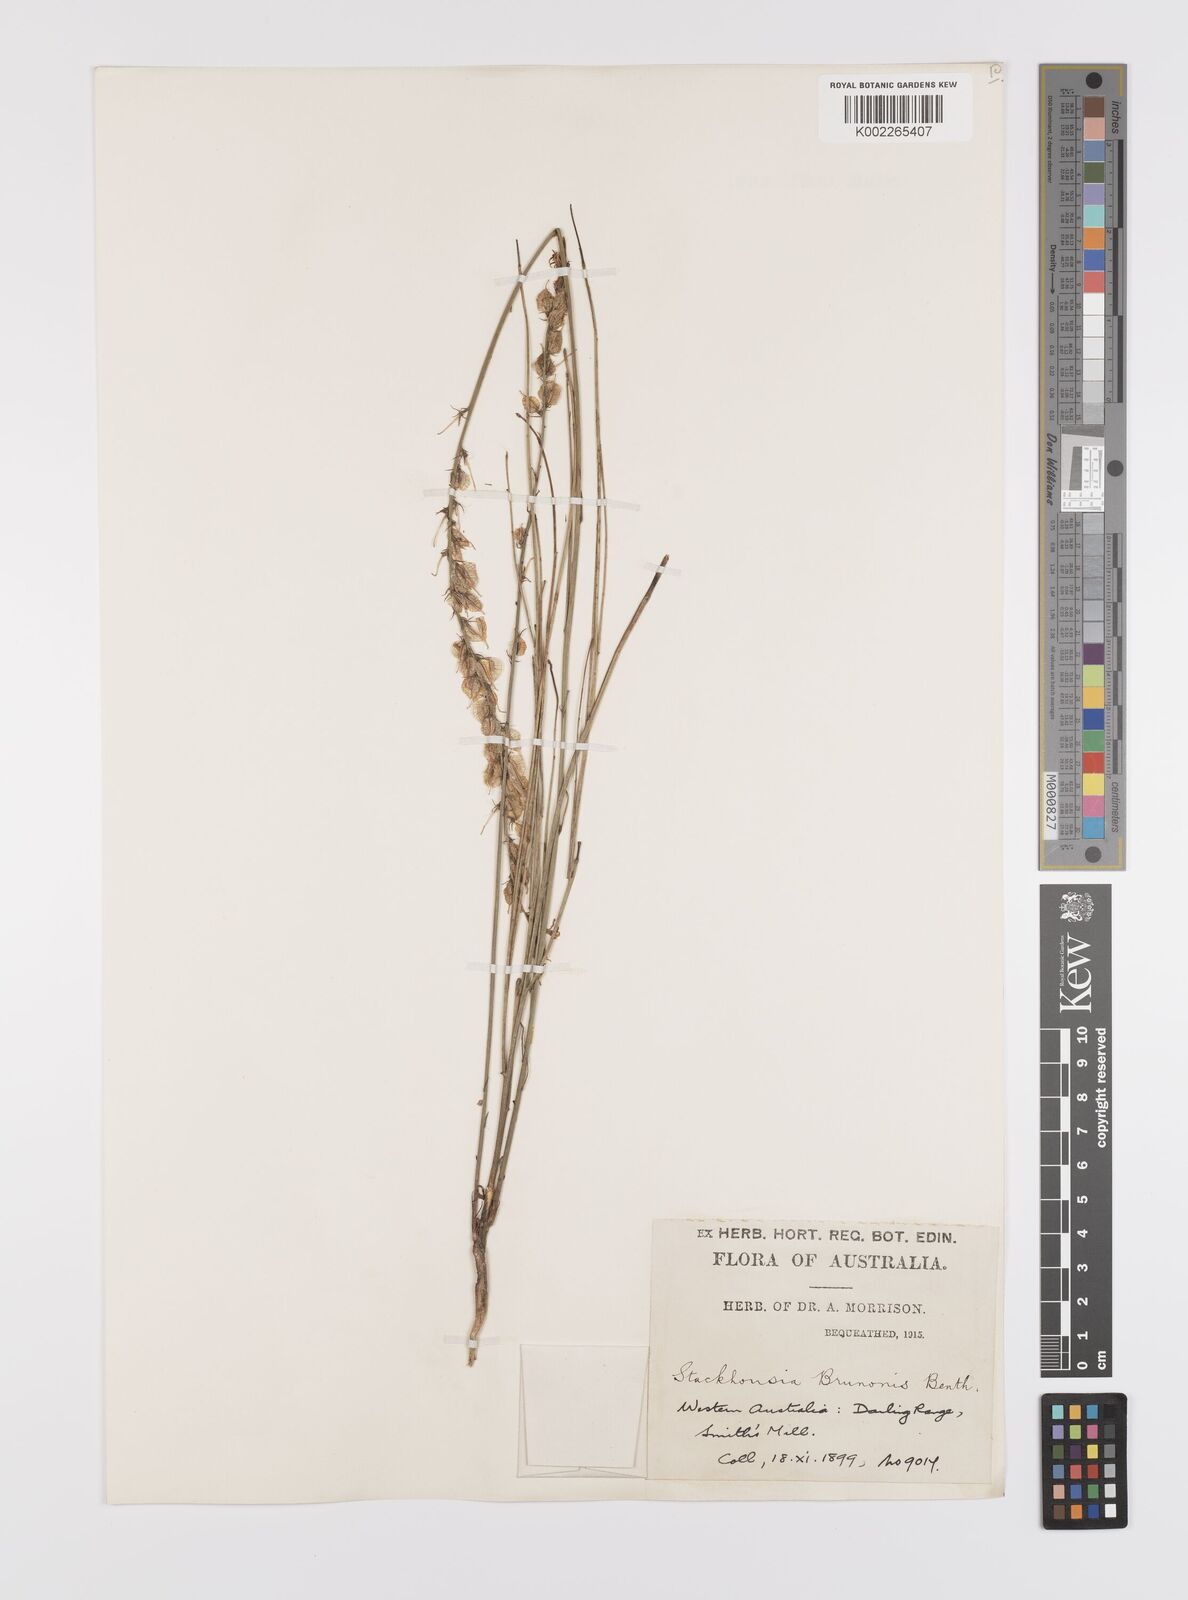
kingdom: Plantae
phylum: Tracheophyta
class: Magnoliopsida
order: Celastrales
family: Celastraceae
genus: Tripterococcus
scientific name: Tripterococcus brunonis
